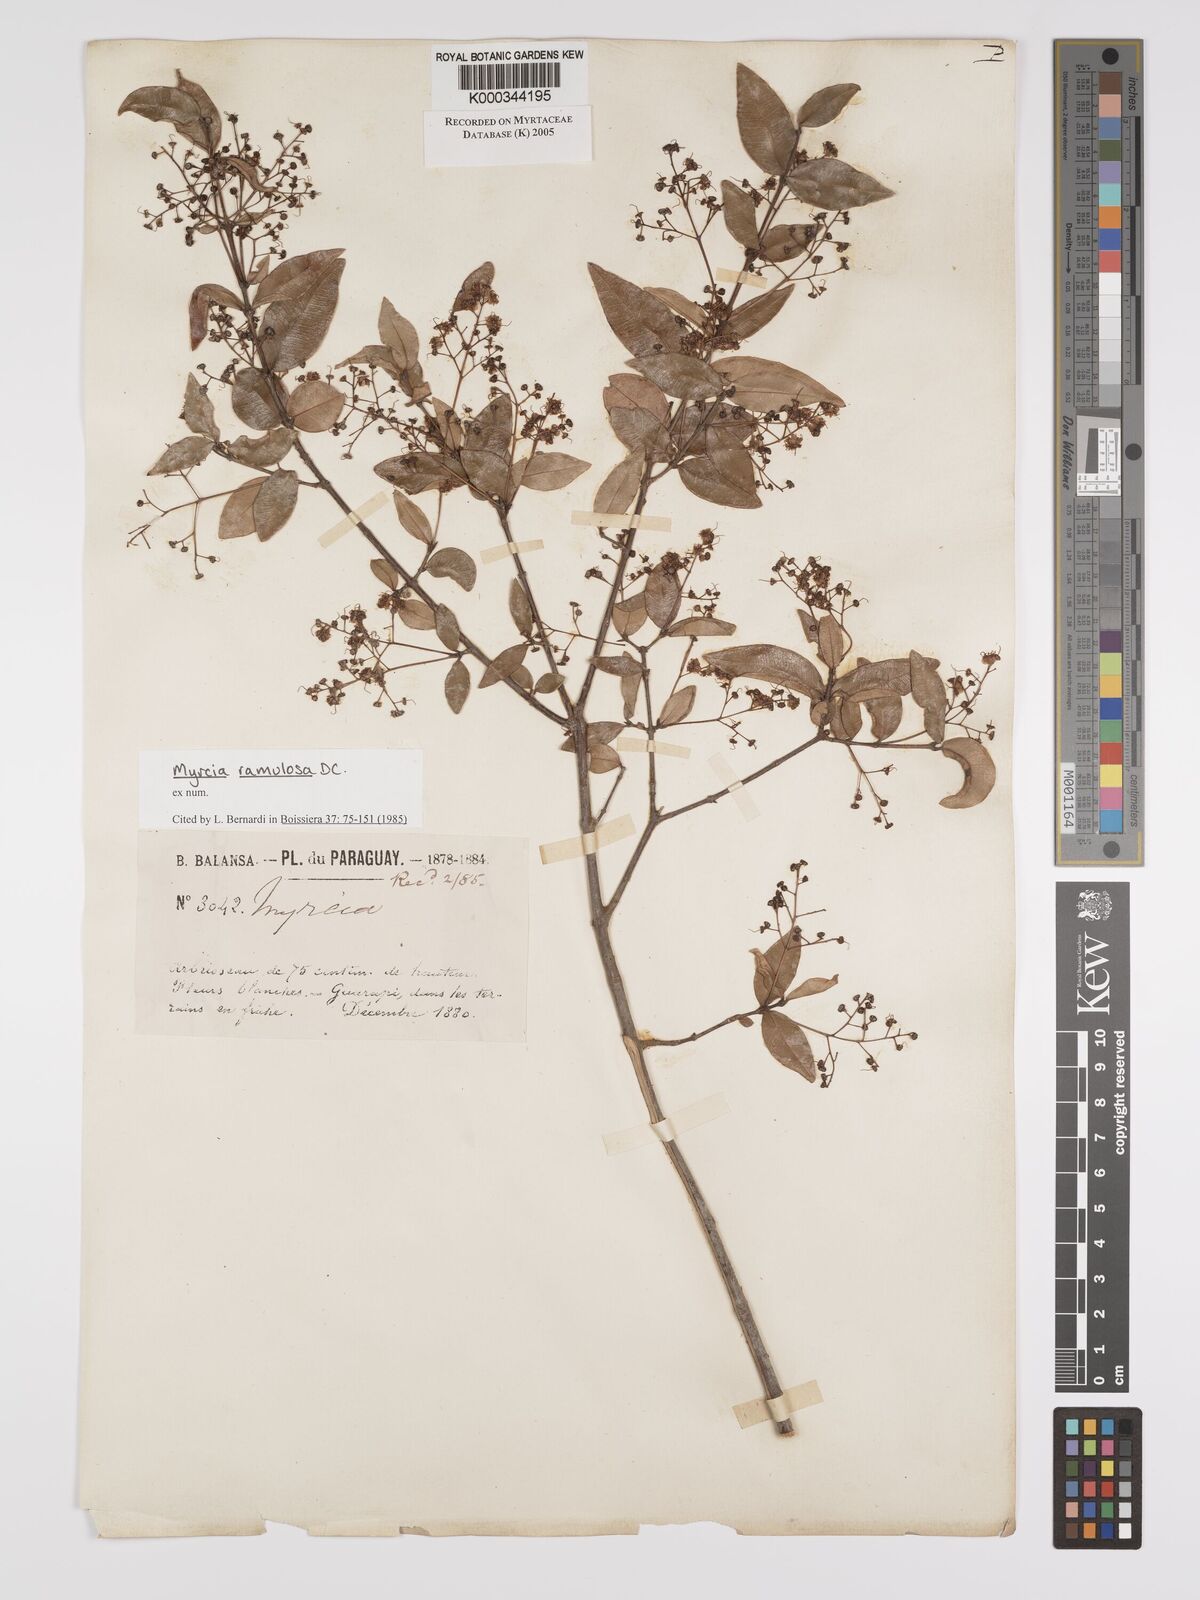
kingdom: Plantae
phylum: Tracheophyta
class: Magnoliopsida
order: Myrtales
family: Myrtaceae
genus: Myrcia
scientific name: Myrcia selloi
